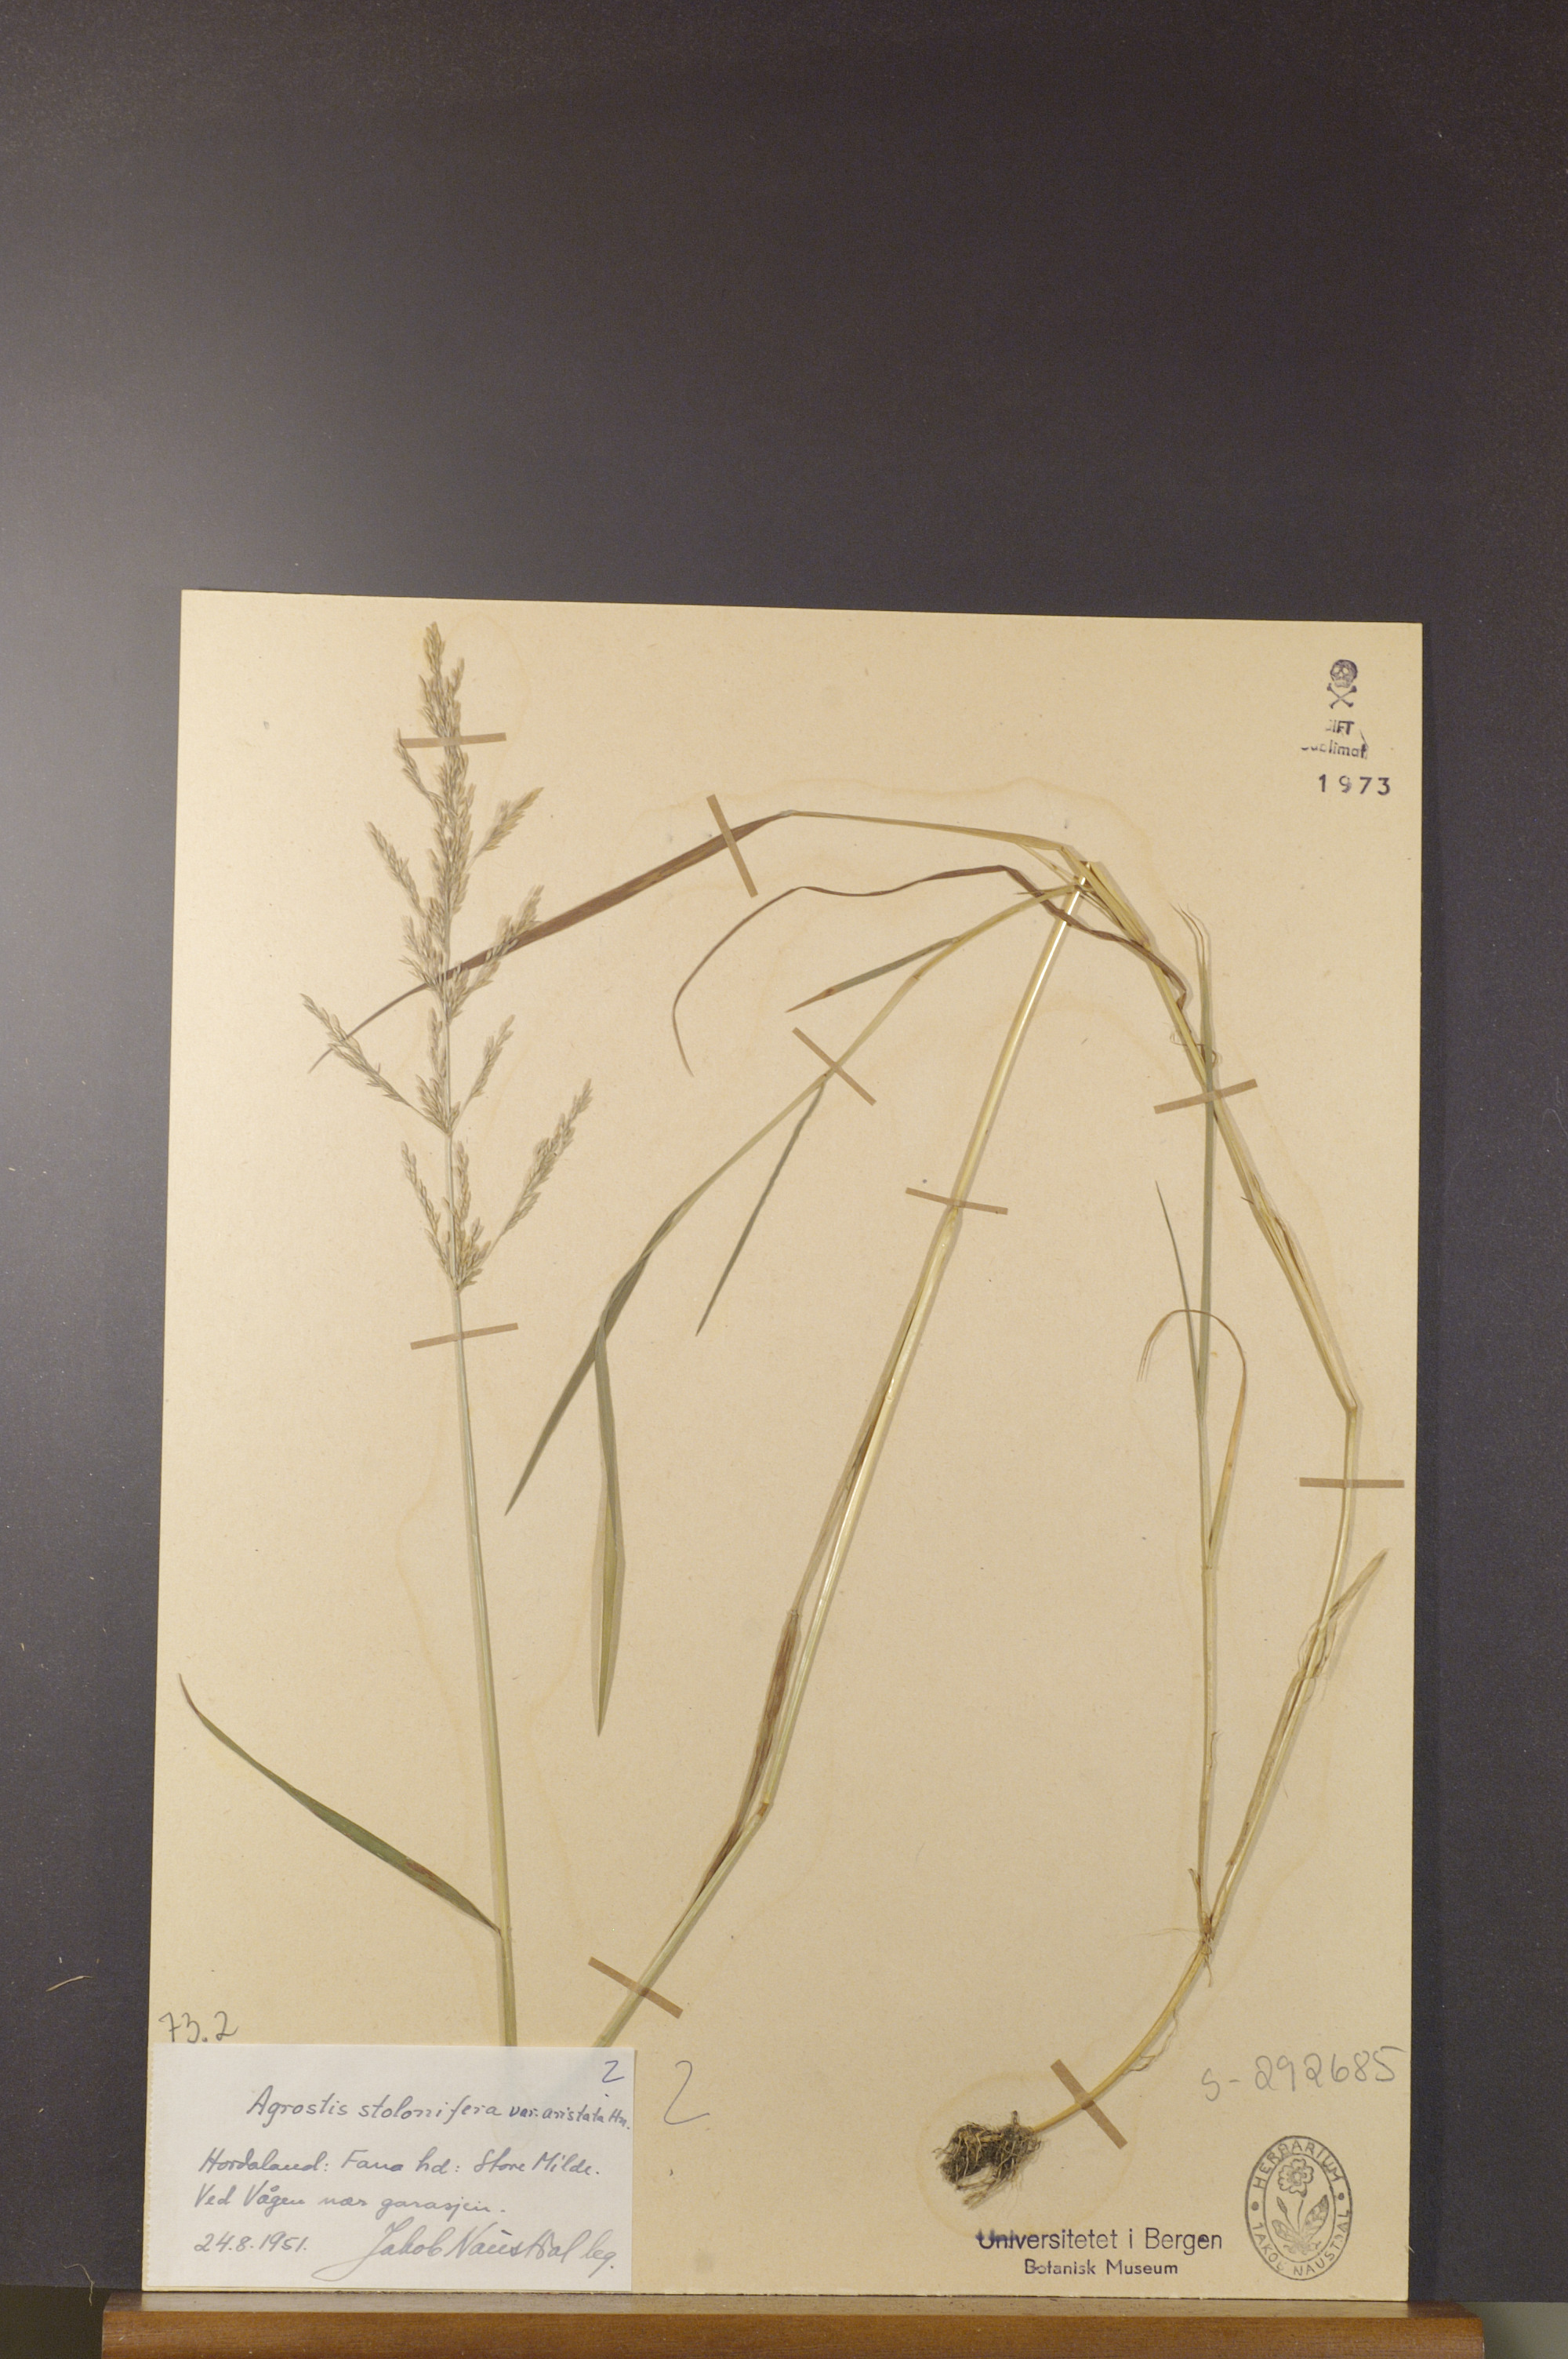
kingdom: Plantae
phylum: Tracheophyta
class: Liliopsida
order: Poales
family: Poaceae
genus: Agrostis
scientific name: Agrostis gigantea
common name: Black bent
